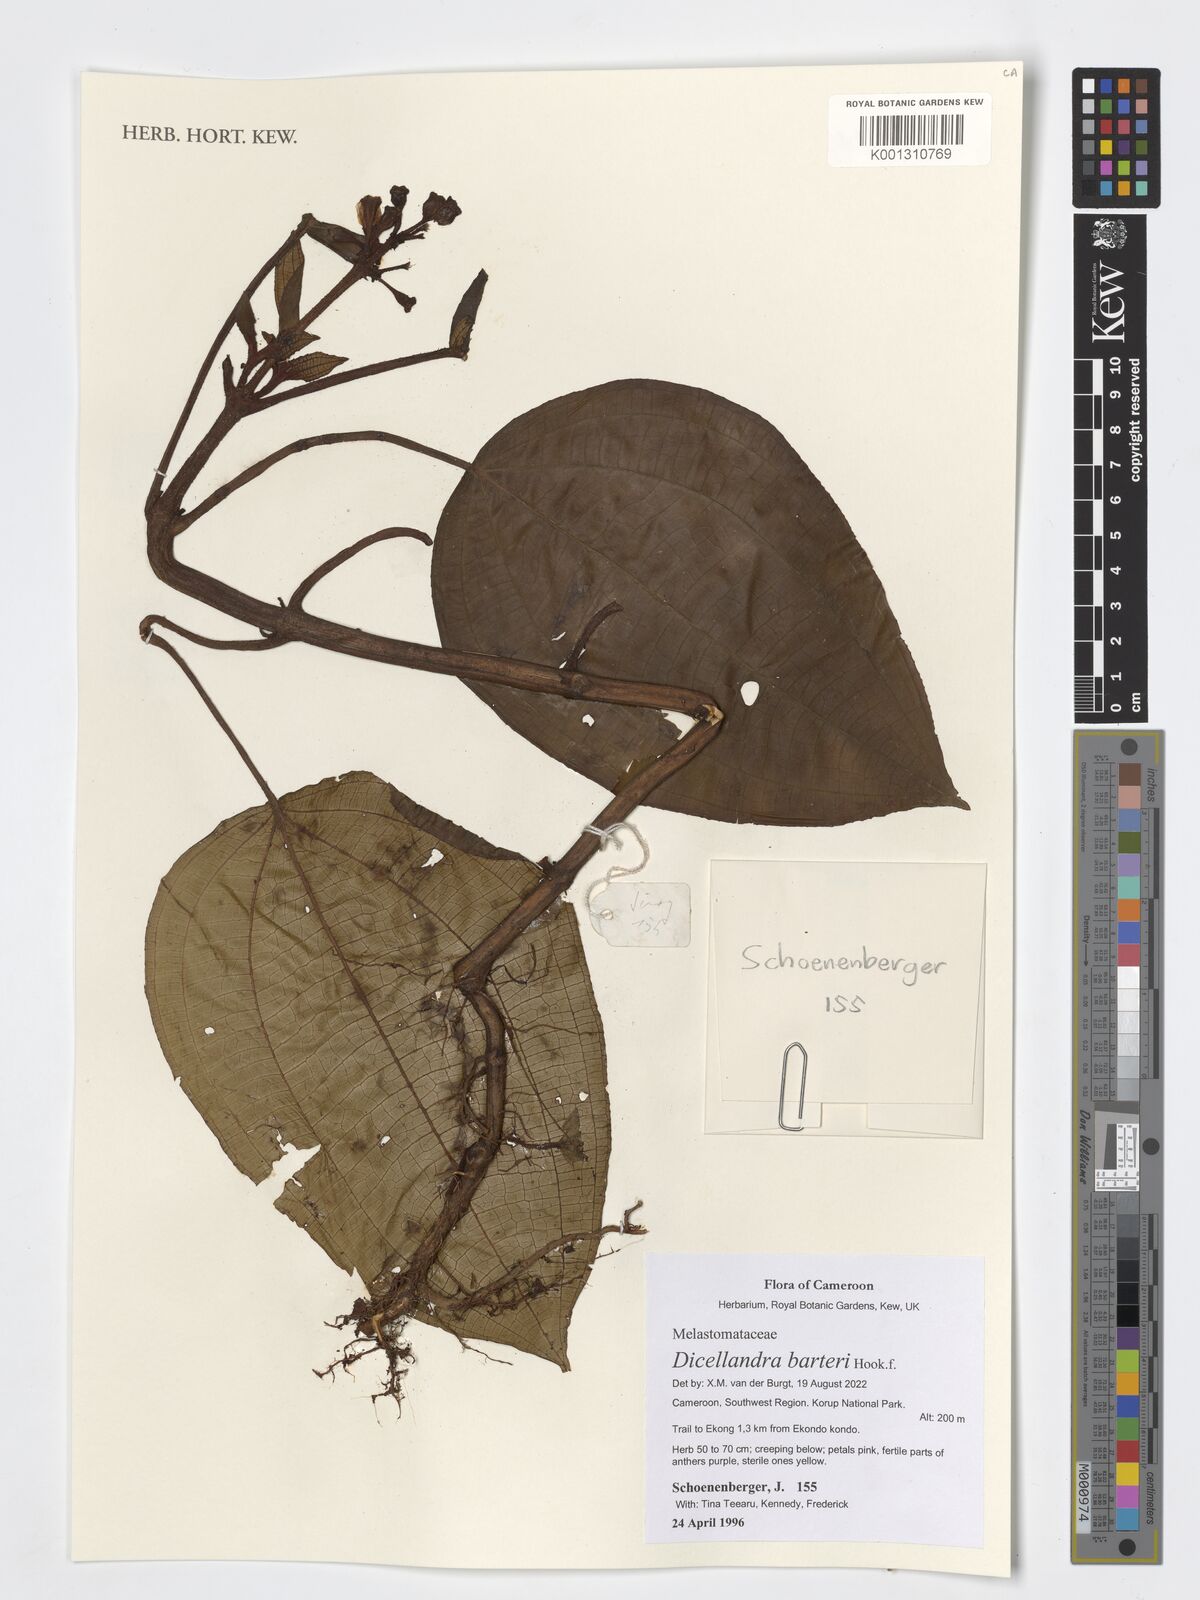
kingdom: Plantae
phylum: Tracheophyta
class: Magnoliopsida
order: Myrtales
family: Melastomataceae
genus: Dicellandra
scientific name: Dicellandra barteri
